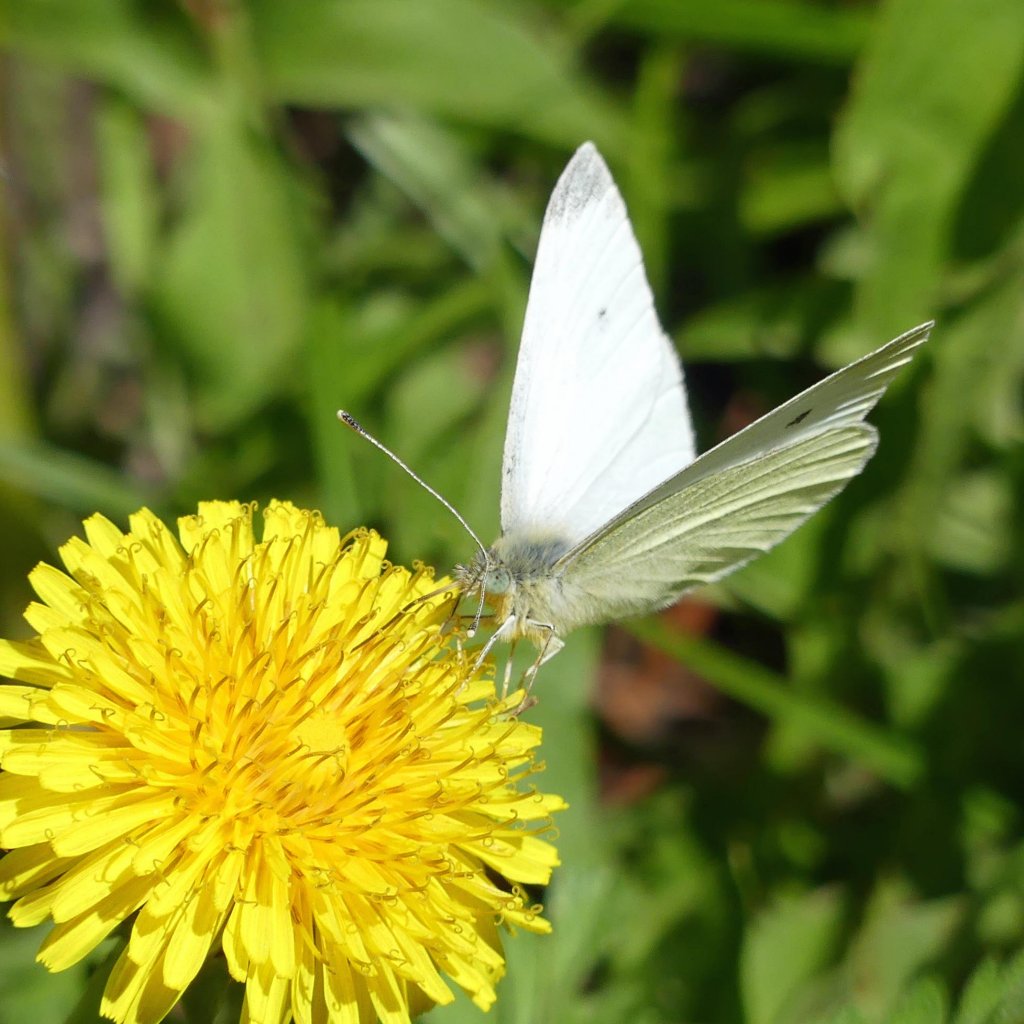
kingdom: Animalia
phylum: Arthropoda
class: Insecta
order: Lepidoptera
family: Pieridae
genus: Pieris
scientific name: Pieris rapae
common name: Cabbage White
